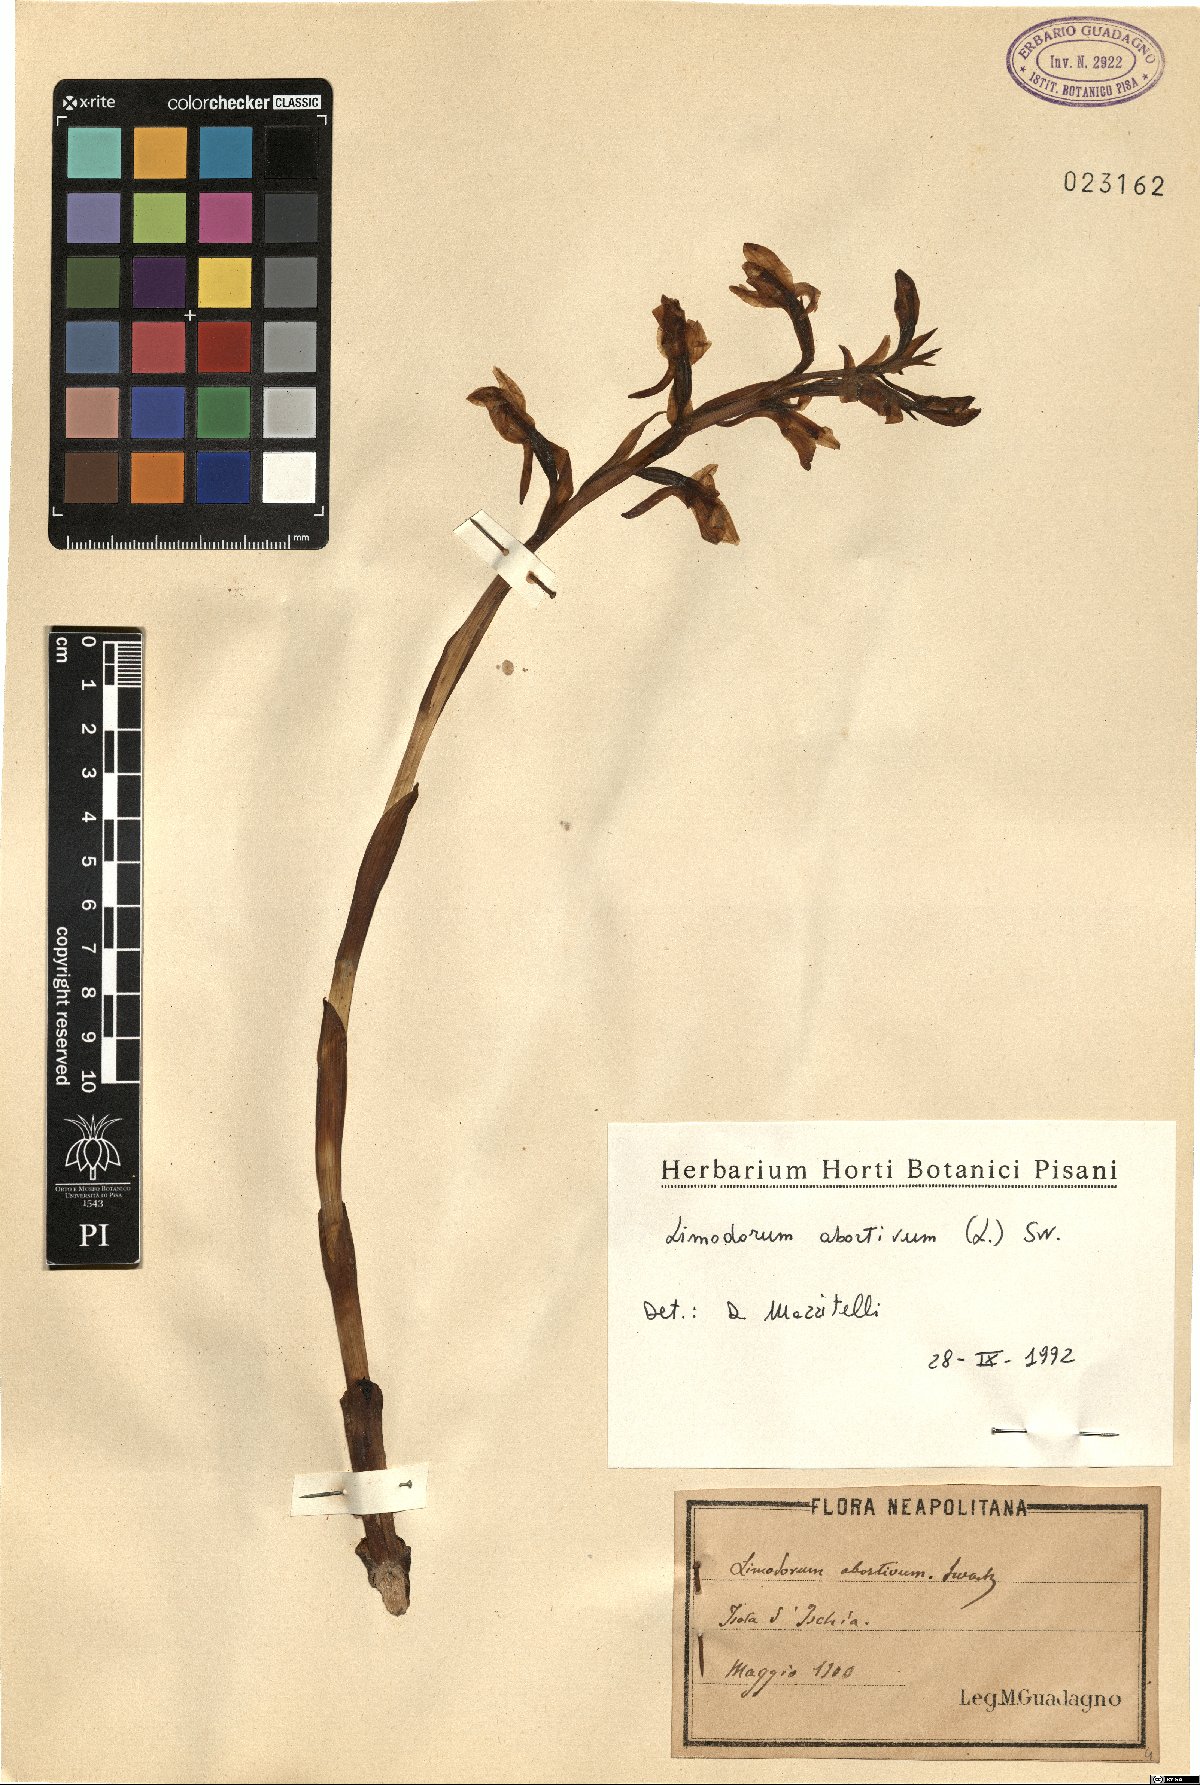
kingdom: Plantae
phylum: Tracheophyta
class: Liliopsida
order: Asparagales
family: Orchidaceae
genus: Limodorum
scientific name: Limodorum abortivum
